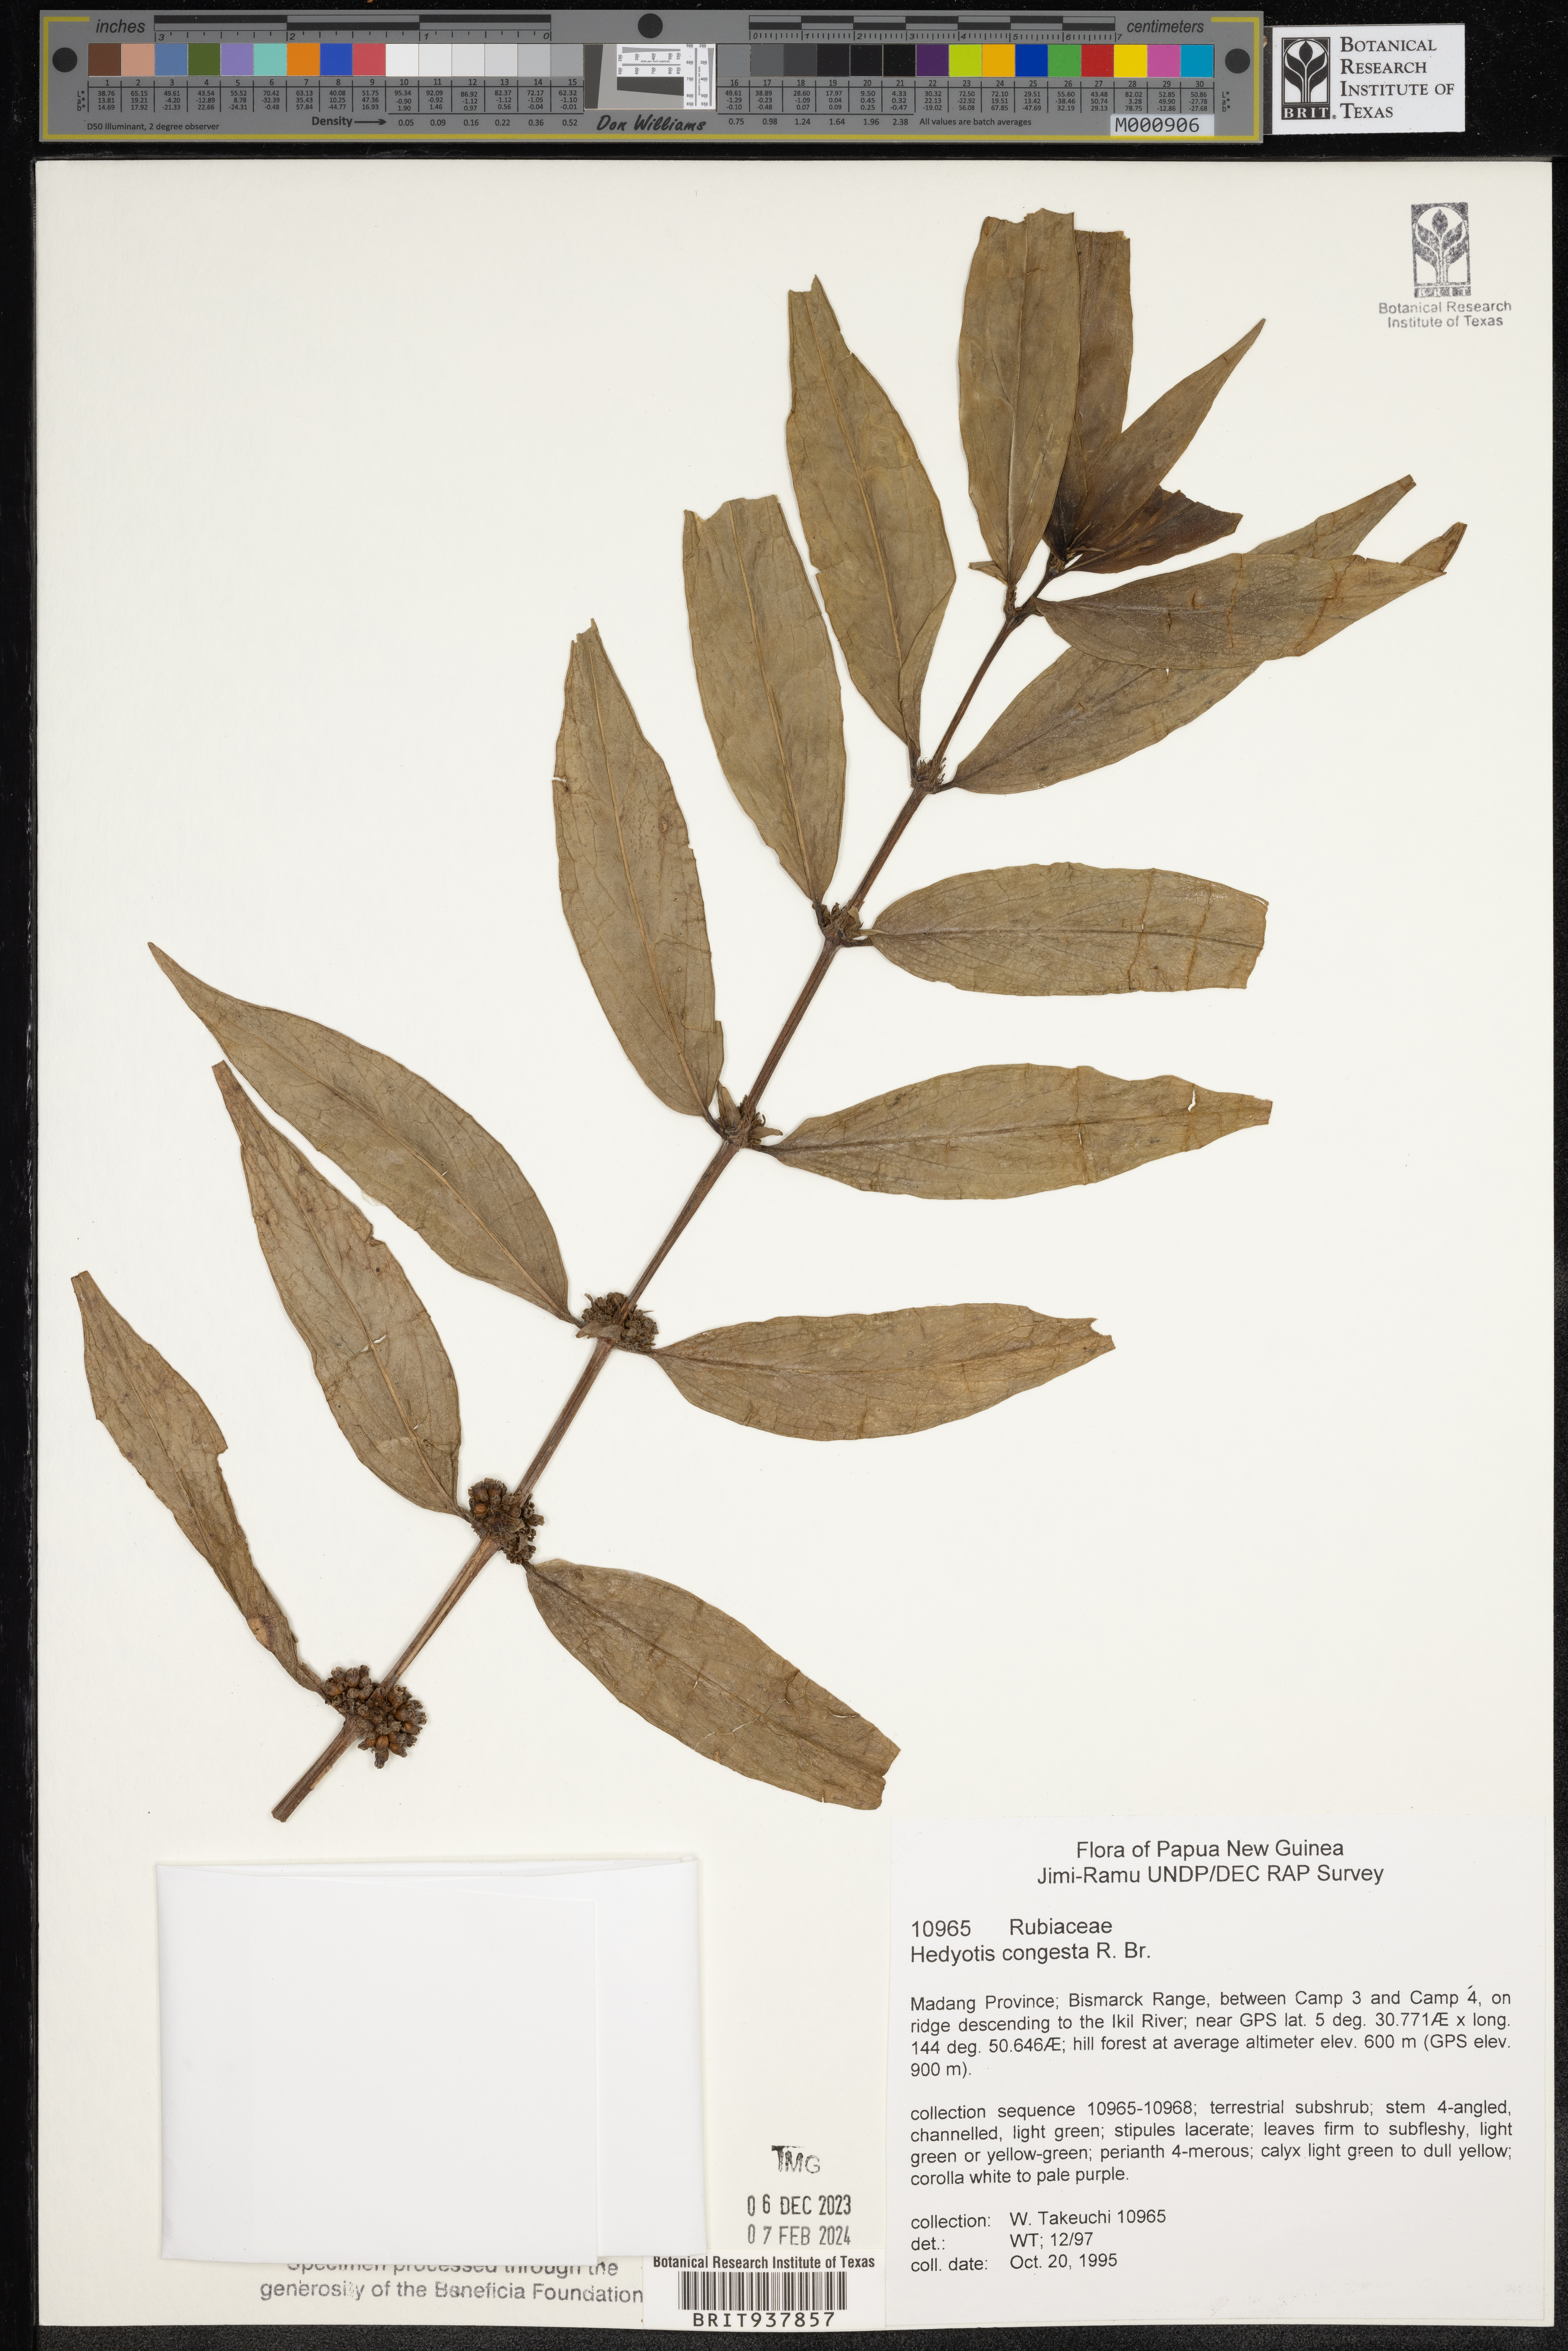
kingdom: Plantae
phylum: Tracheophyta
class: Magnoliopsida
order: Gentianales
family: Rubiaceae
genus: Hedyotis
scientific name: Hedyotis
